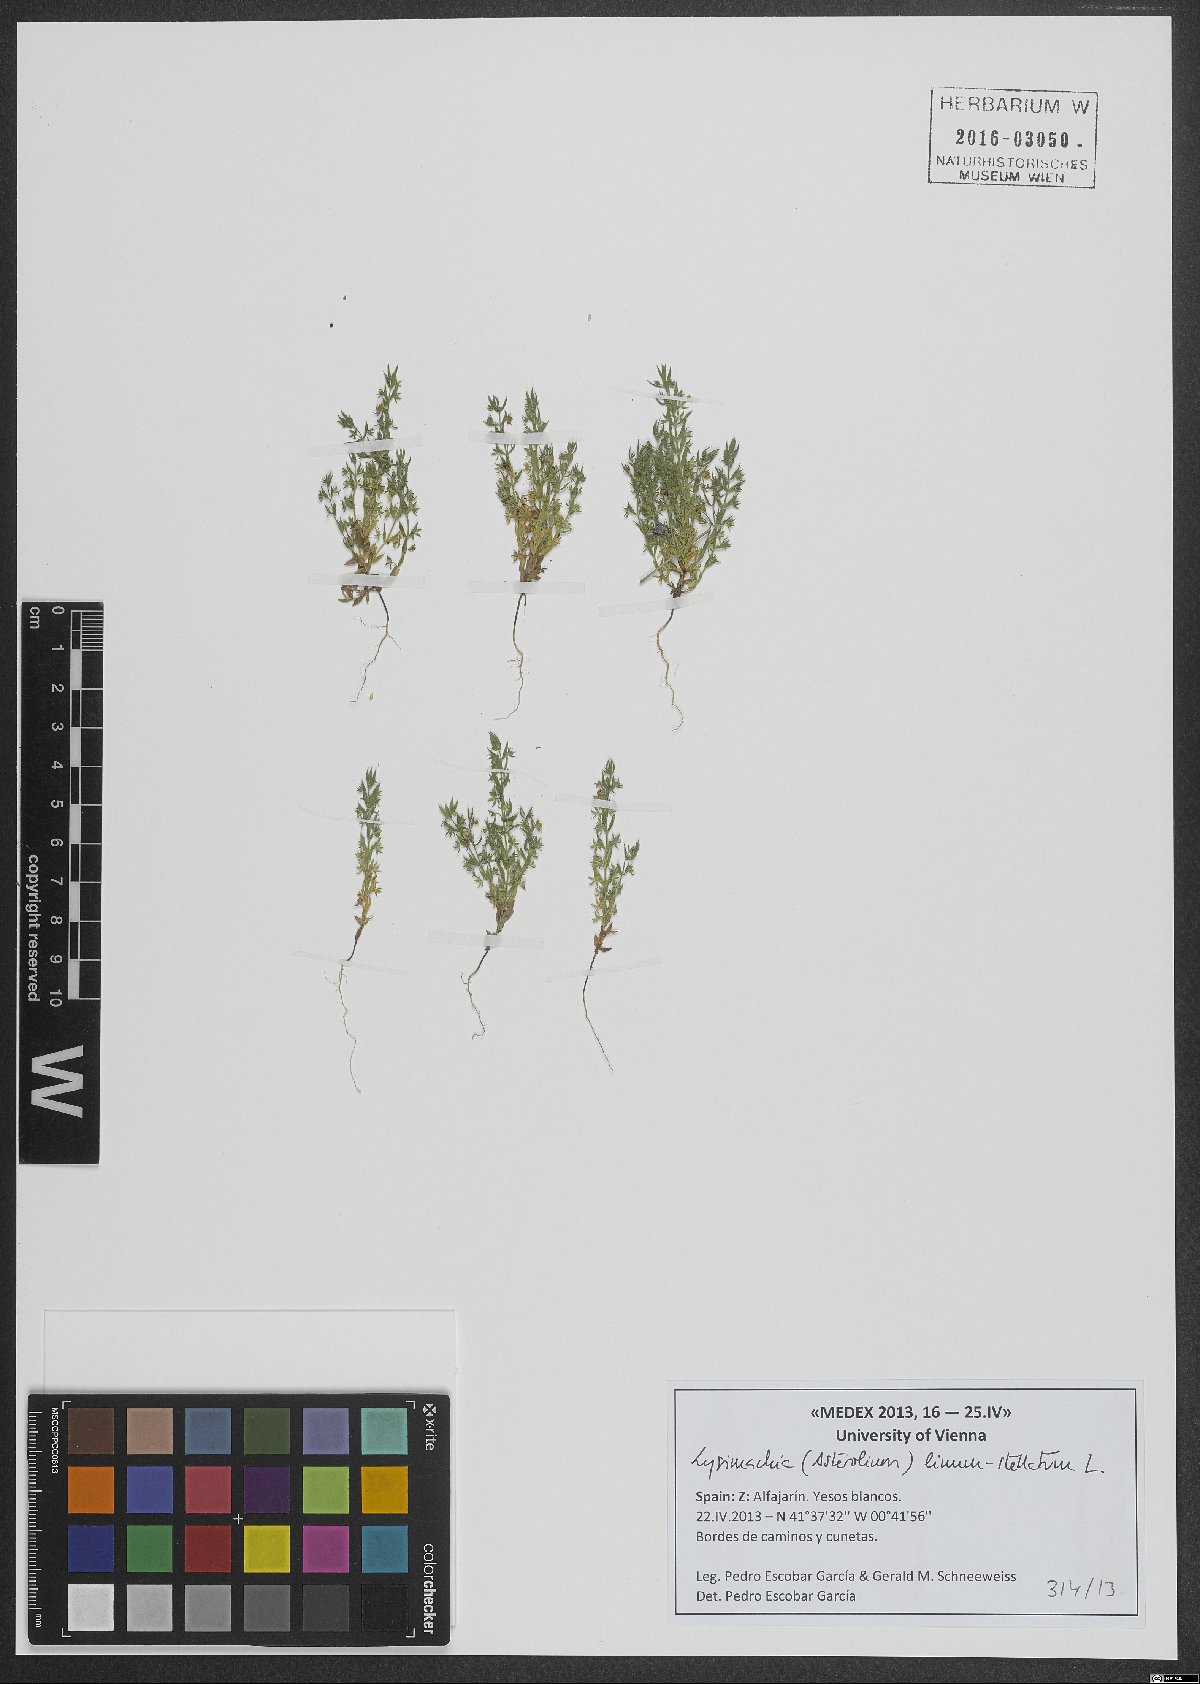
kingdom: Plantae
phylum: Tracheophyta
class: Magnoliopsida
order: Ericales
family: Primulaceae
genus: Lysimachia
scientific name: Lysimachia linum-stellatum
